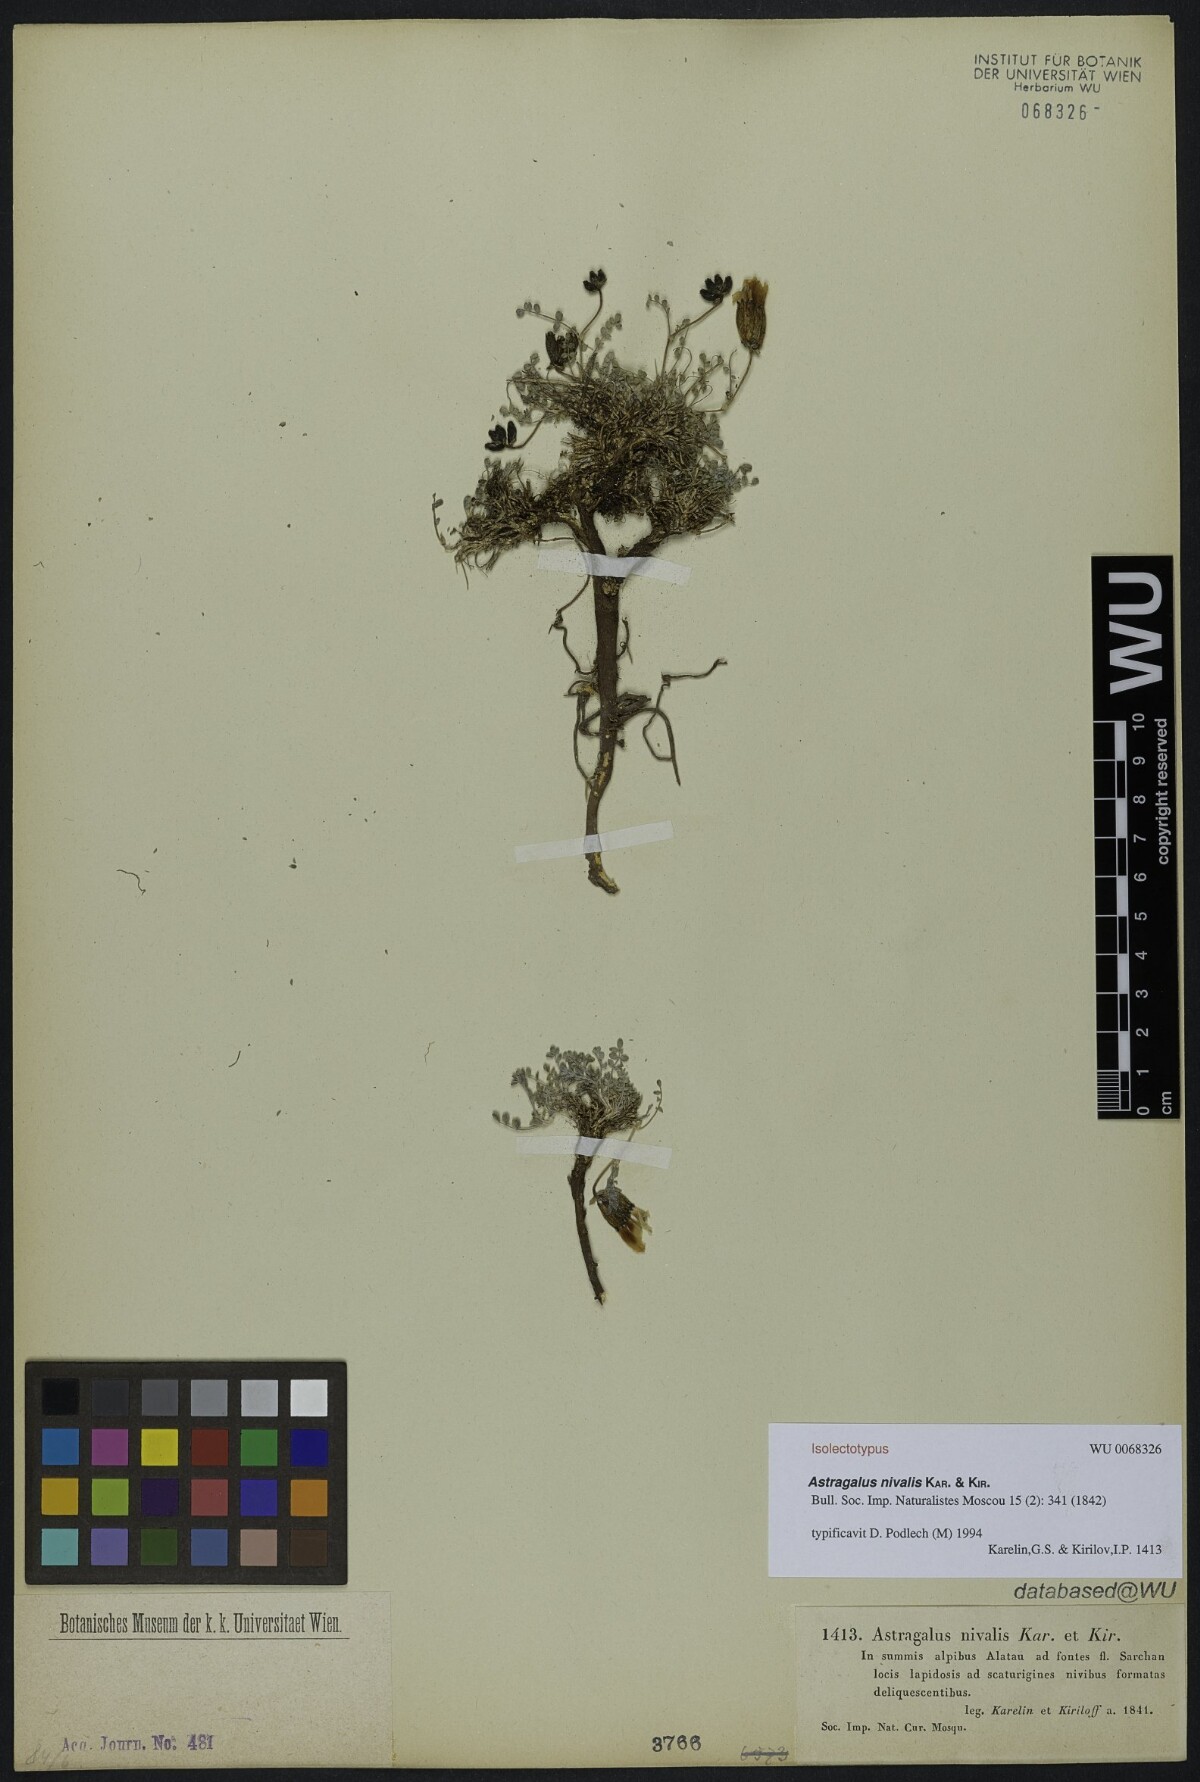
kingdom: Plantae
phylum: Tracheophyta
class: Magnoliopsida
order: Fabales
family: Fabaceae
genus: Astragalus
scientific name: Astragalus nivalis
